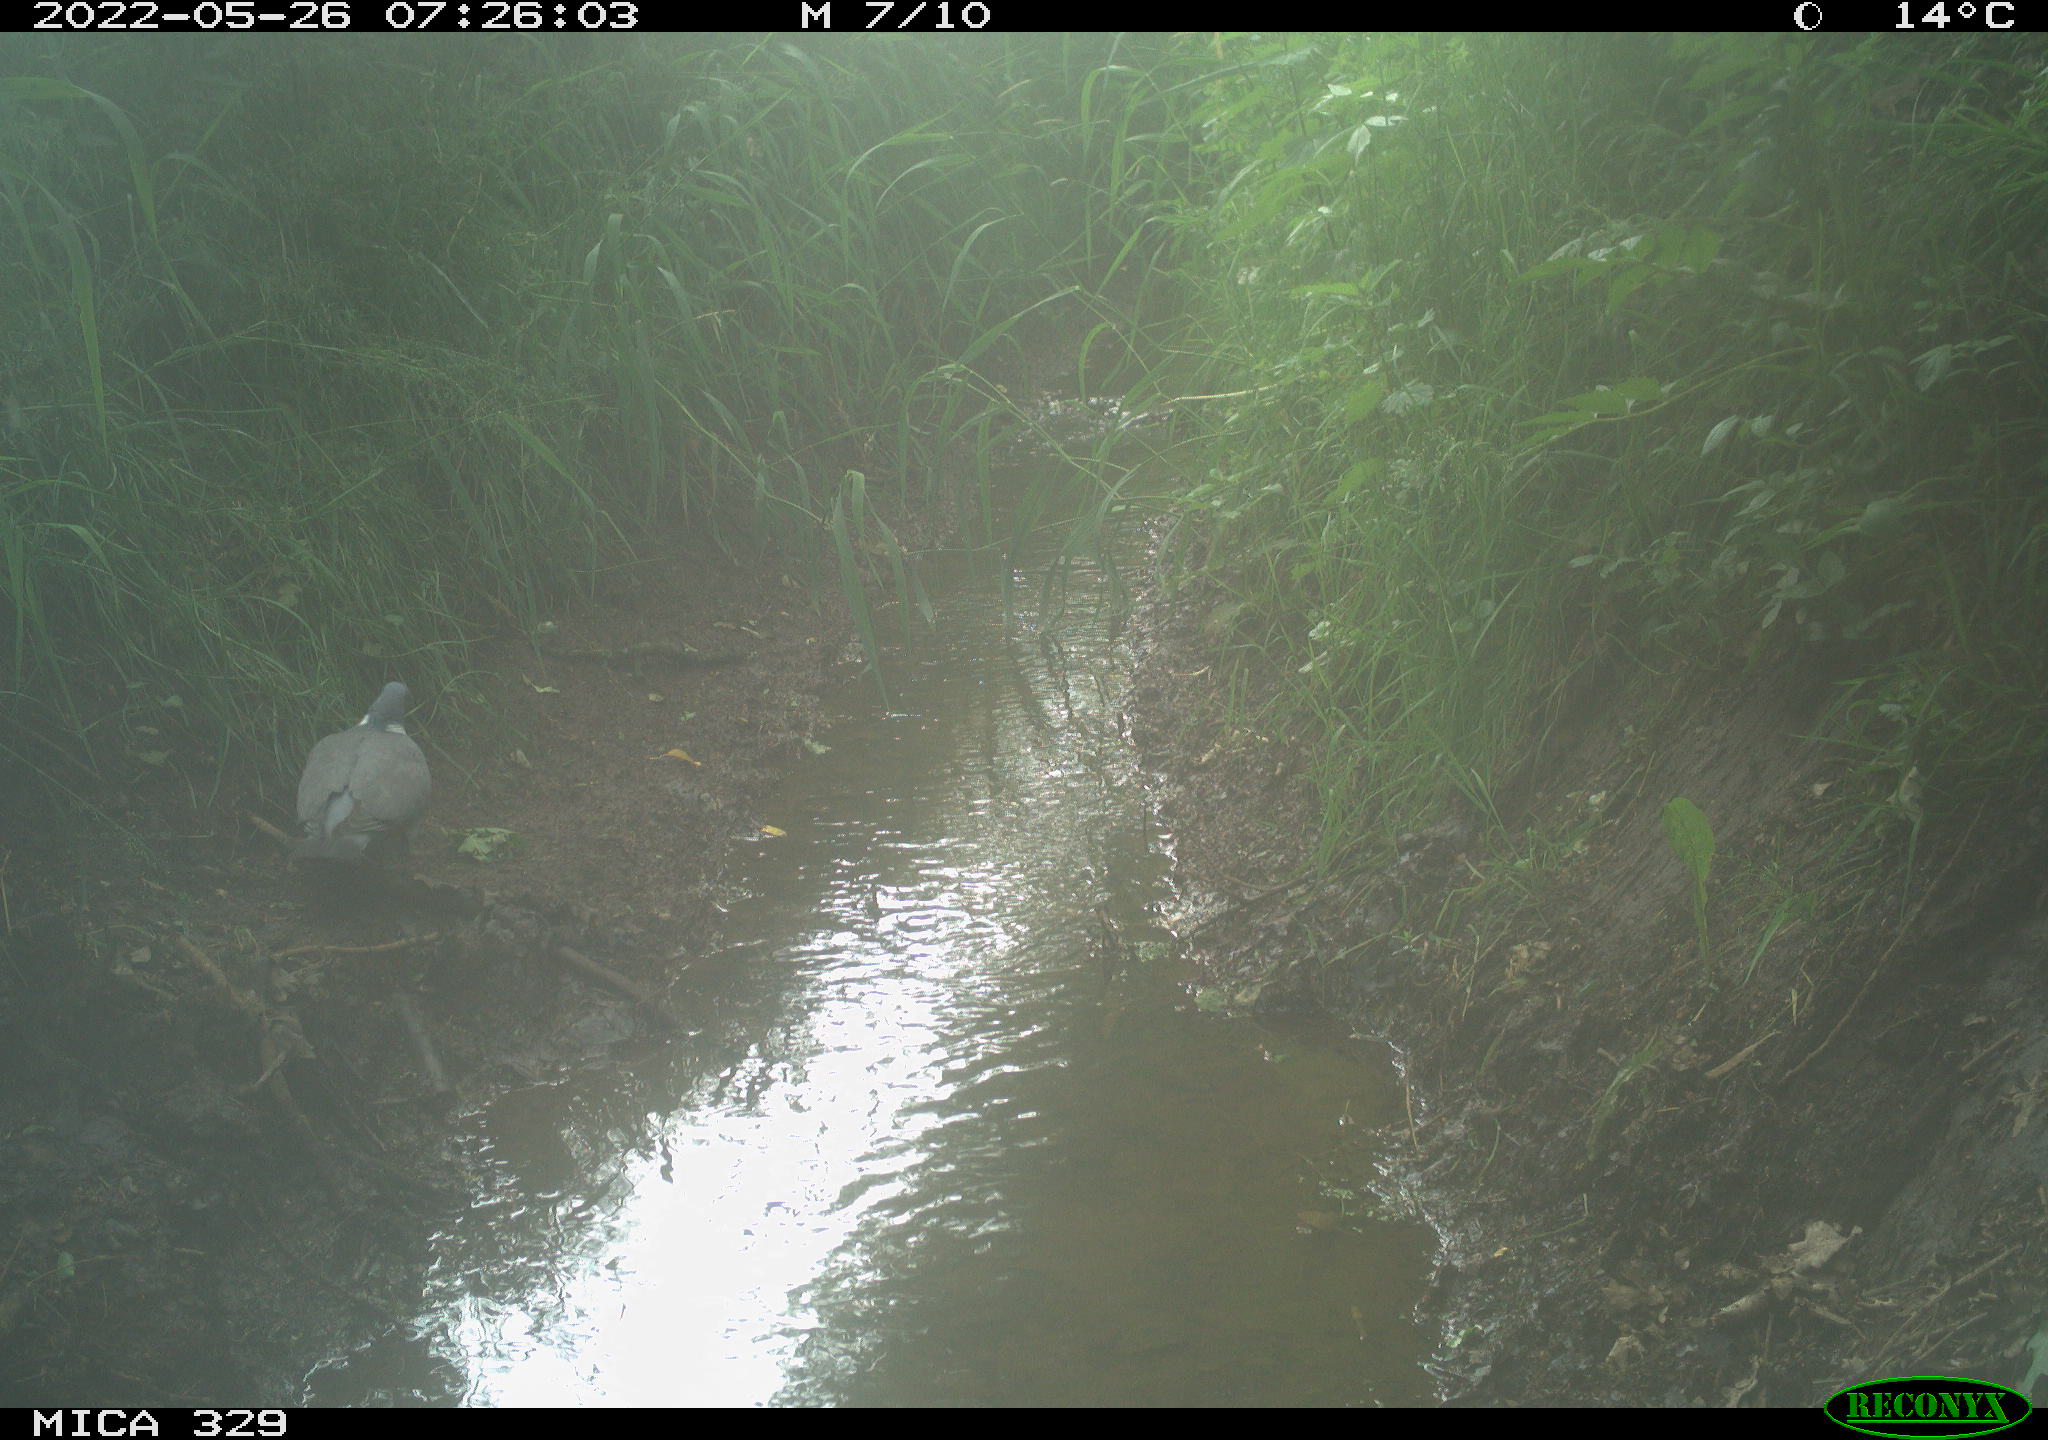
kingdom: Animalia
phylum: Chordata
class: Aves
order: Columbiformes
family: Columbidae
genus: Columba
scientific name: Columba palumbus
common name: Common wood pigeon
